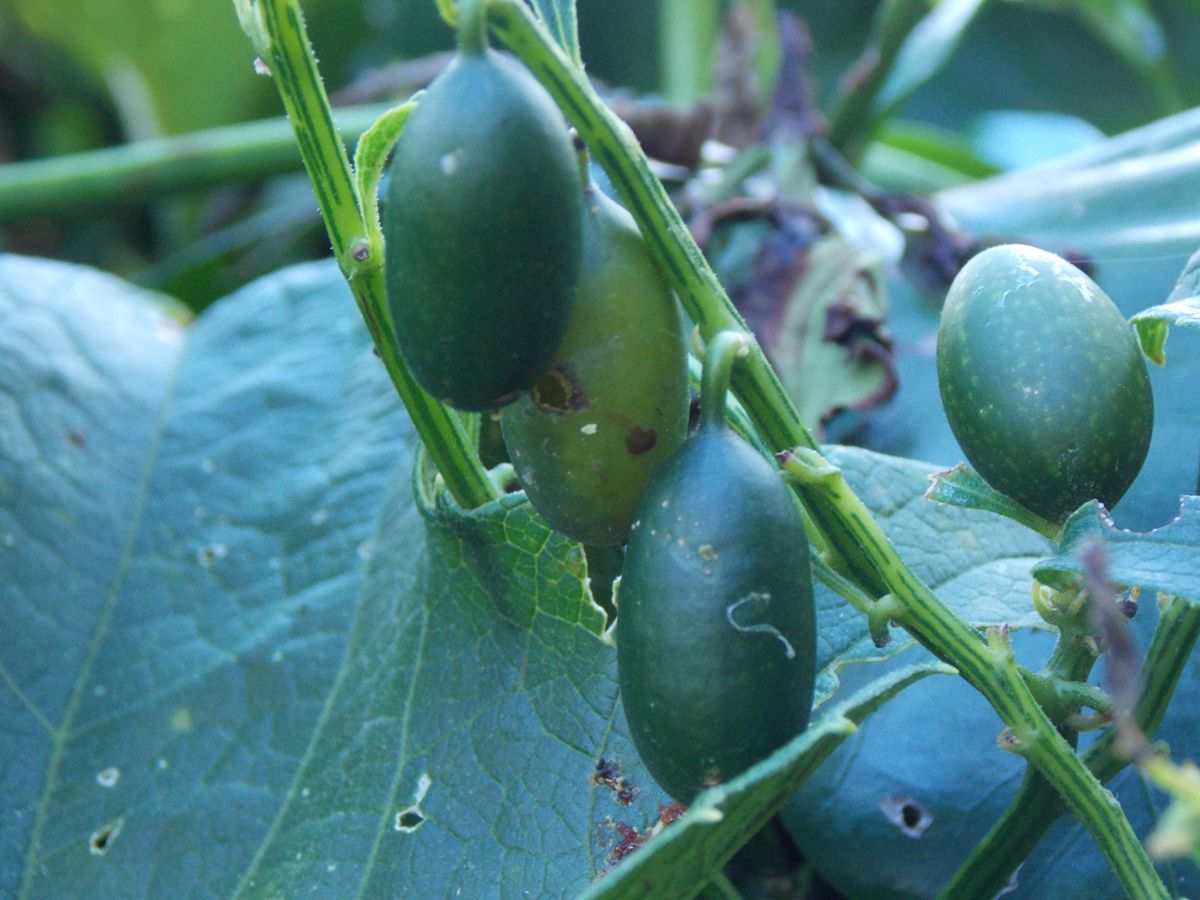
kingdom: Plantae
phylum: Tracheophyta
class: Magnoliopsida
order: Cucurbitales
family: Cucurbitaceae
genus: Cayaponia
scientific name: Cayaponia racemosa
